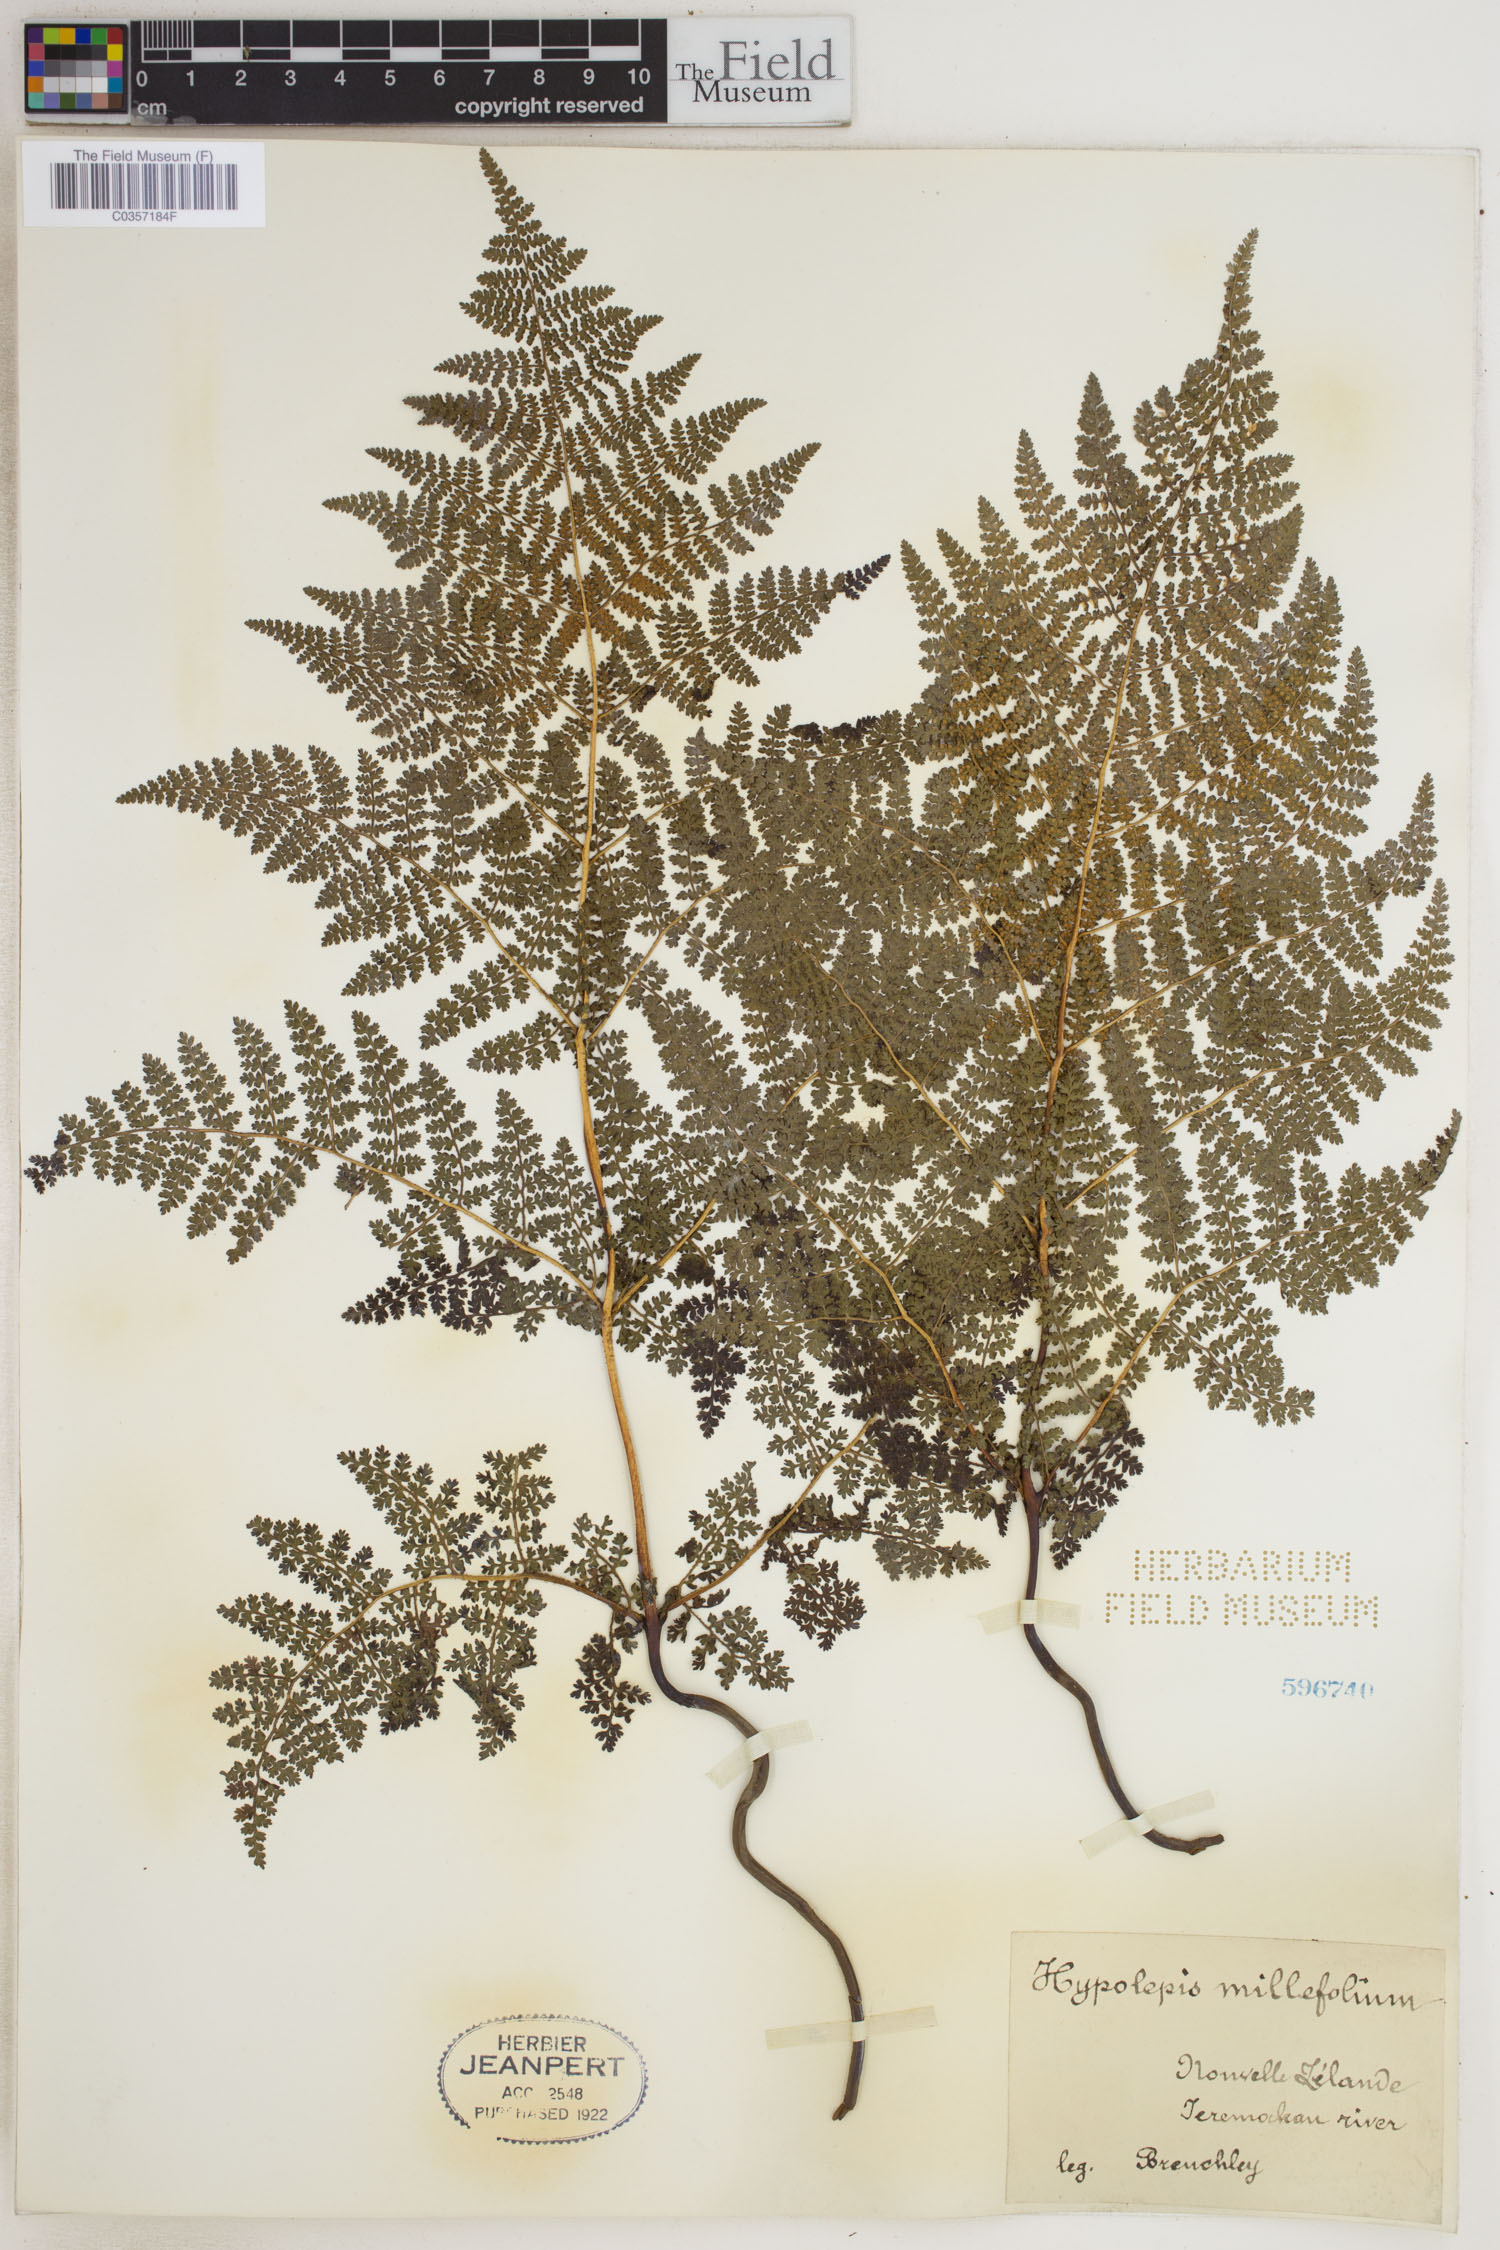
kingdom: Plantae
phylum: Tracheophyta
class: Polypodiopsida
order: Polypodiales
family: Dennstaedtiaceae
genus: Hypolepis
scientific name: Hypolepis millefolium
